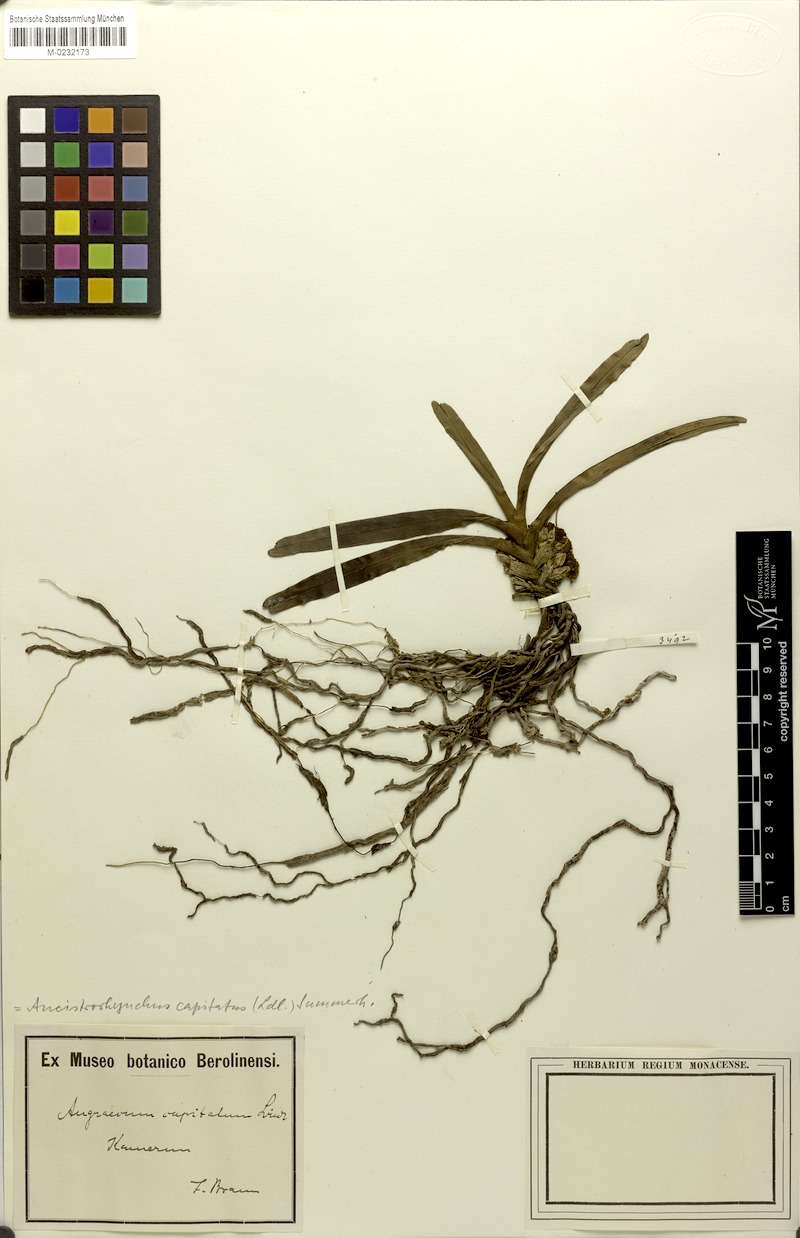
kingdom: Plantae
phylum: Tracheophyta
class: Liliopsida
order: Asparagales
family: Orchidaceae
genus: Ancistrorhynchus
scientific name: Ancistrorhynchus capitatus
